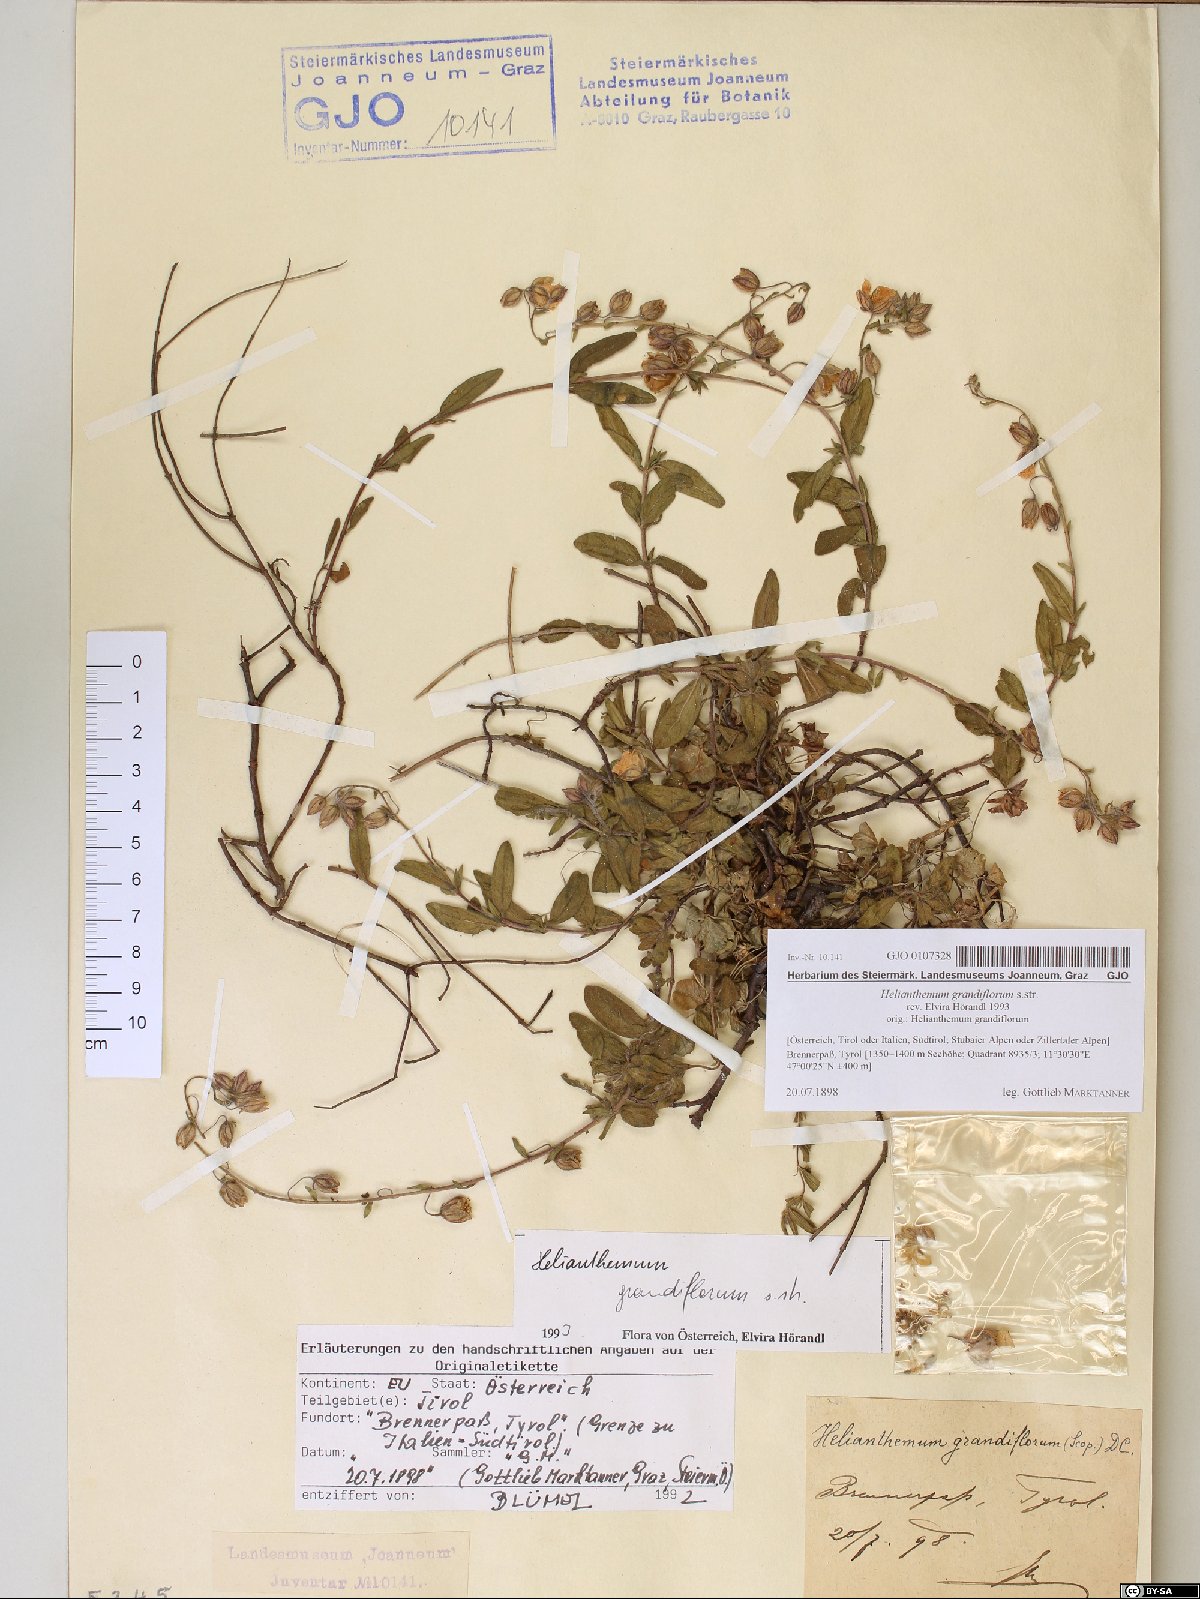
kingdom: Plantae
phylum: Tracheophyta
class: Magnoliopsida
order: Malvales
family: Cistaceae
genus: Helianthemum
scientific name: Helianthemum nummularium
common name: Common rock-rose
